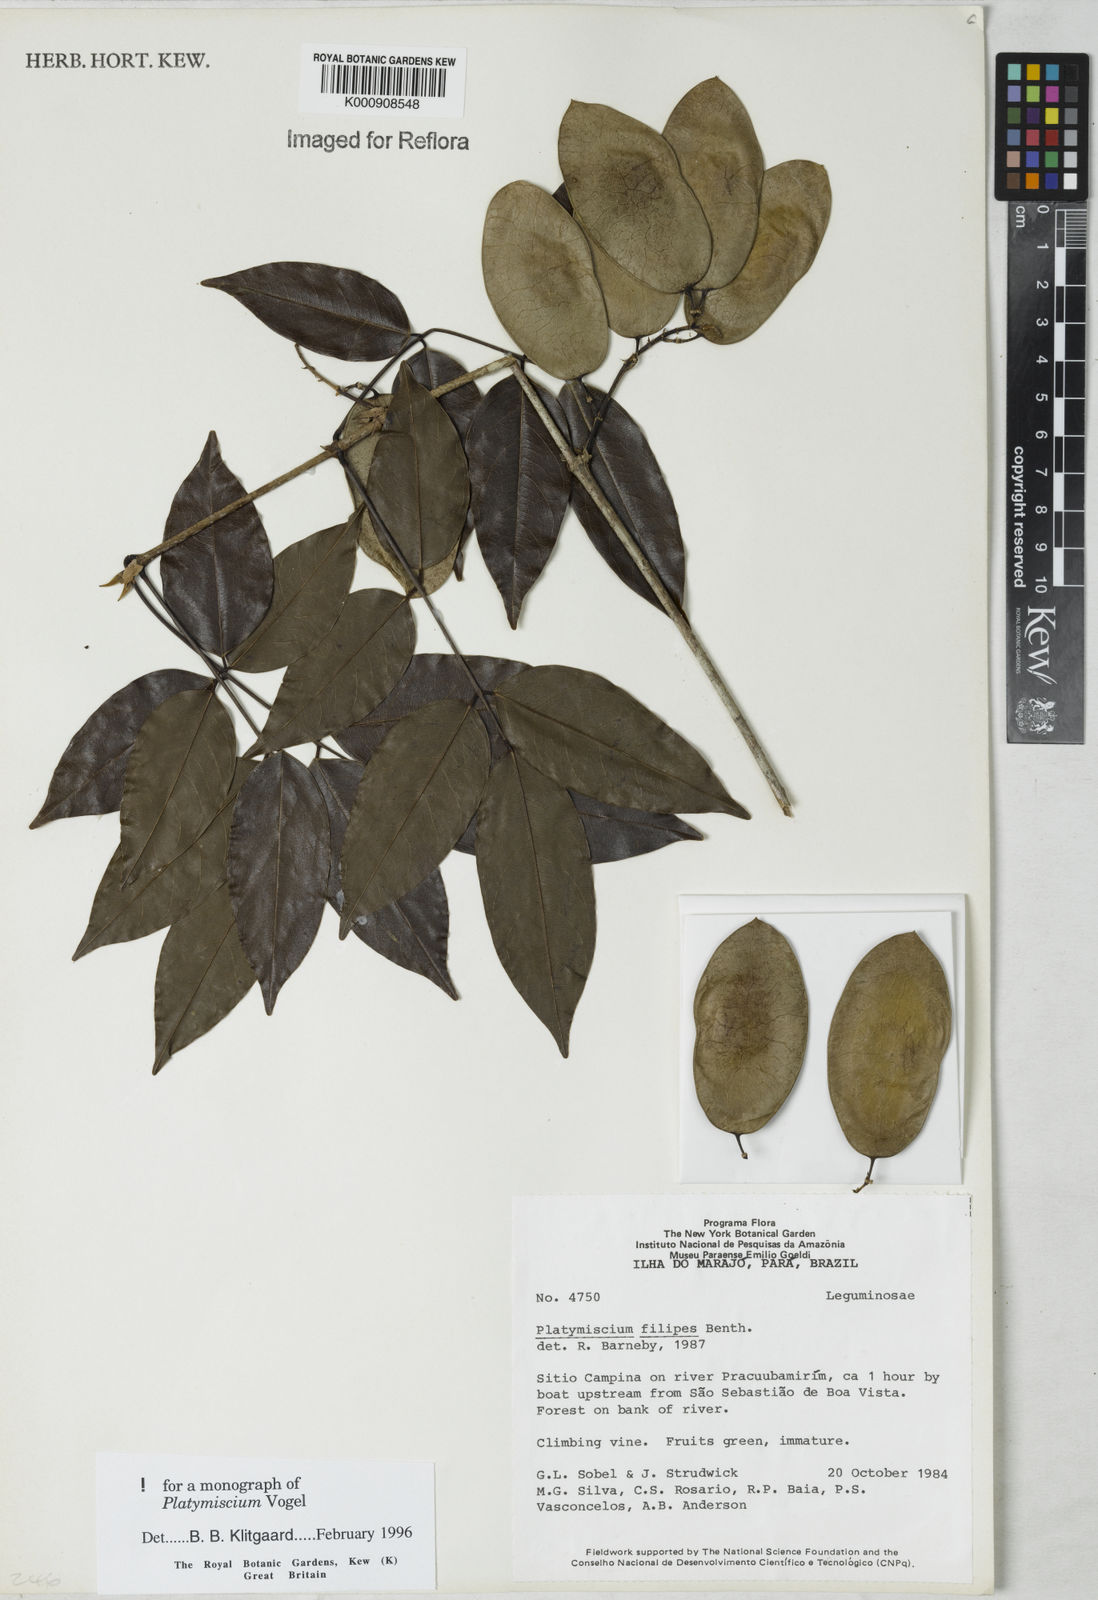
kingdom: Plantae
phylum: Tracheophyta
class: Magnoliopsida
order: Fabales
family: Fabaceae
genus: Platymiscium
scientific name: Platymiscium filipes
